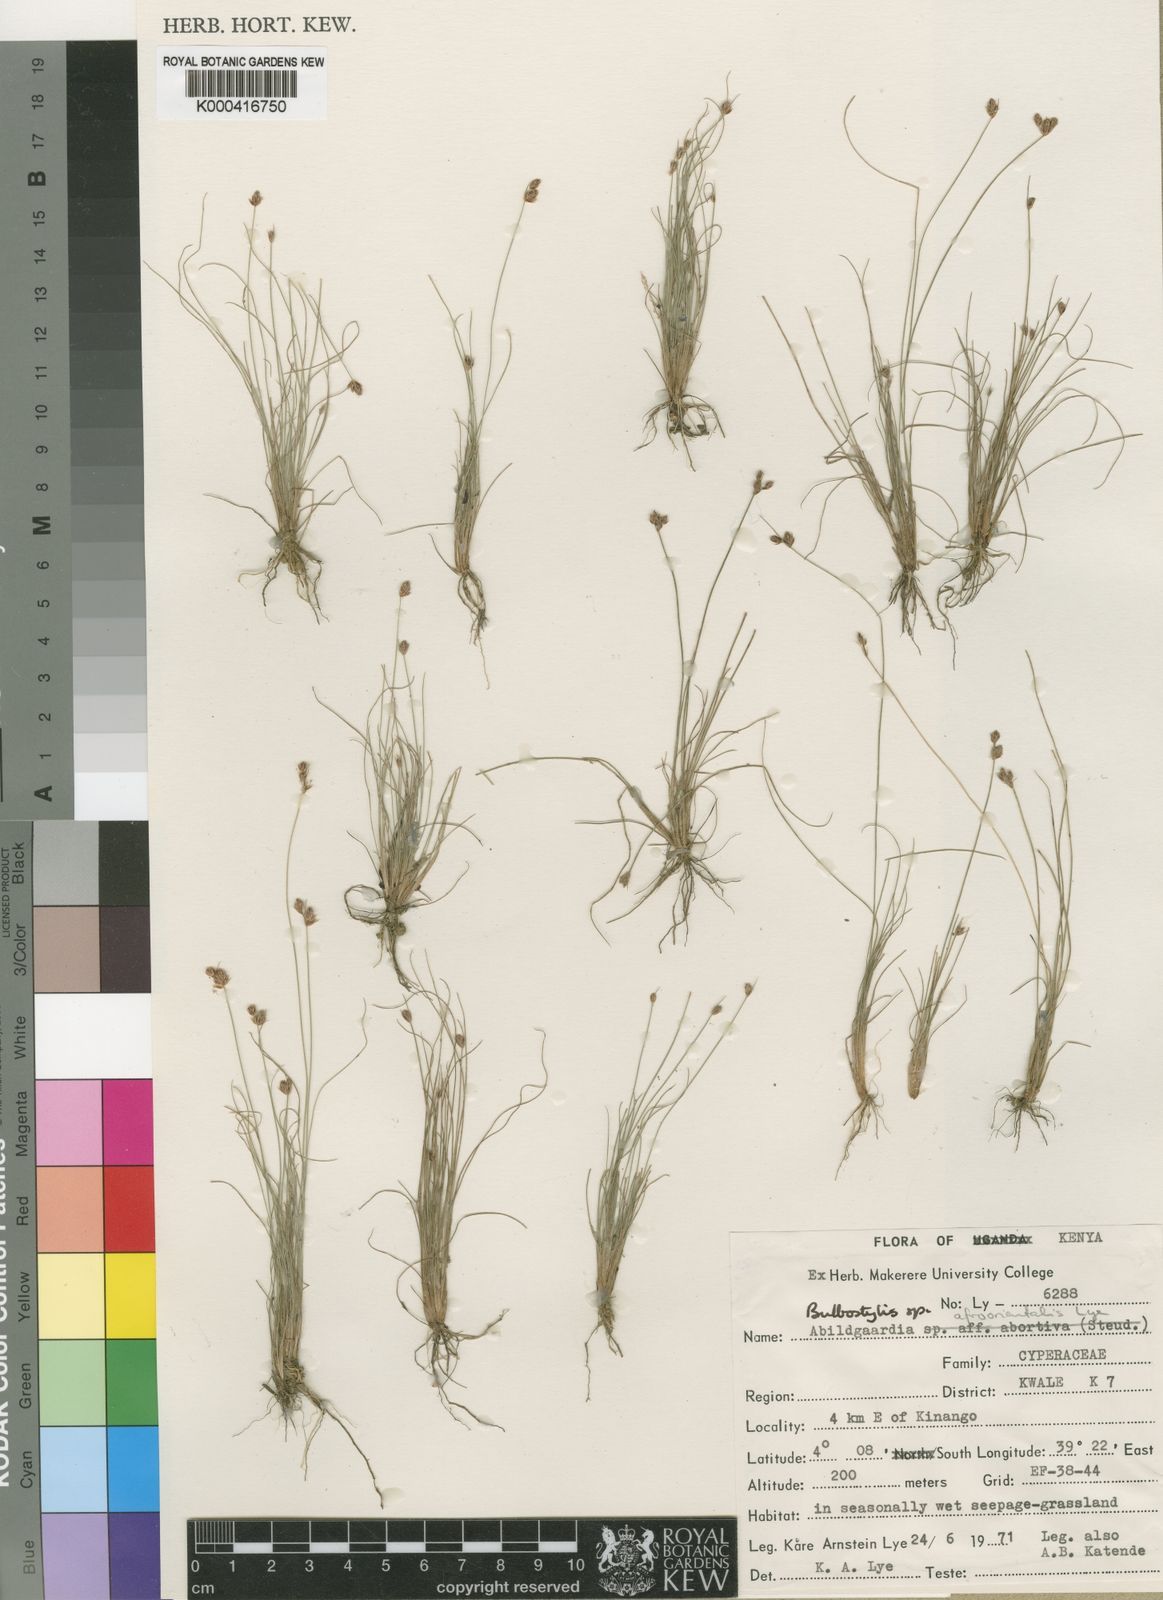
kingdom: Plantae
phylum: Tracheophyta
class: Liliopsida
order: Poales
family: Cyperaceae
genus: Bulbostylis
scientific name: Bulbostylis afroorientalis
